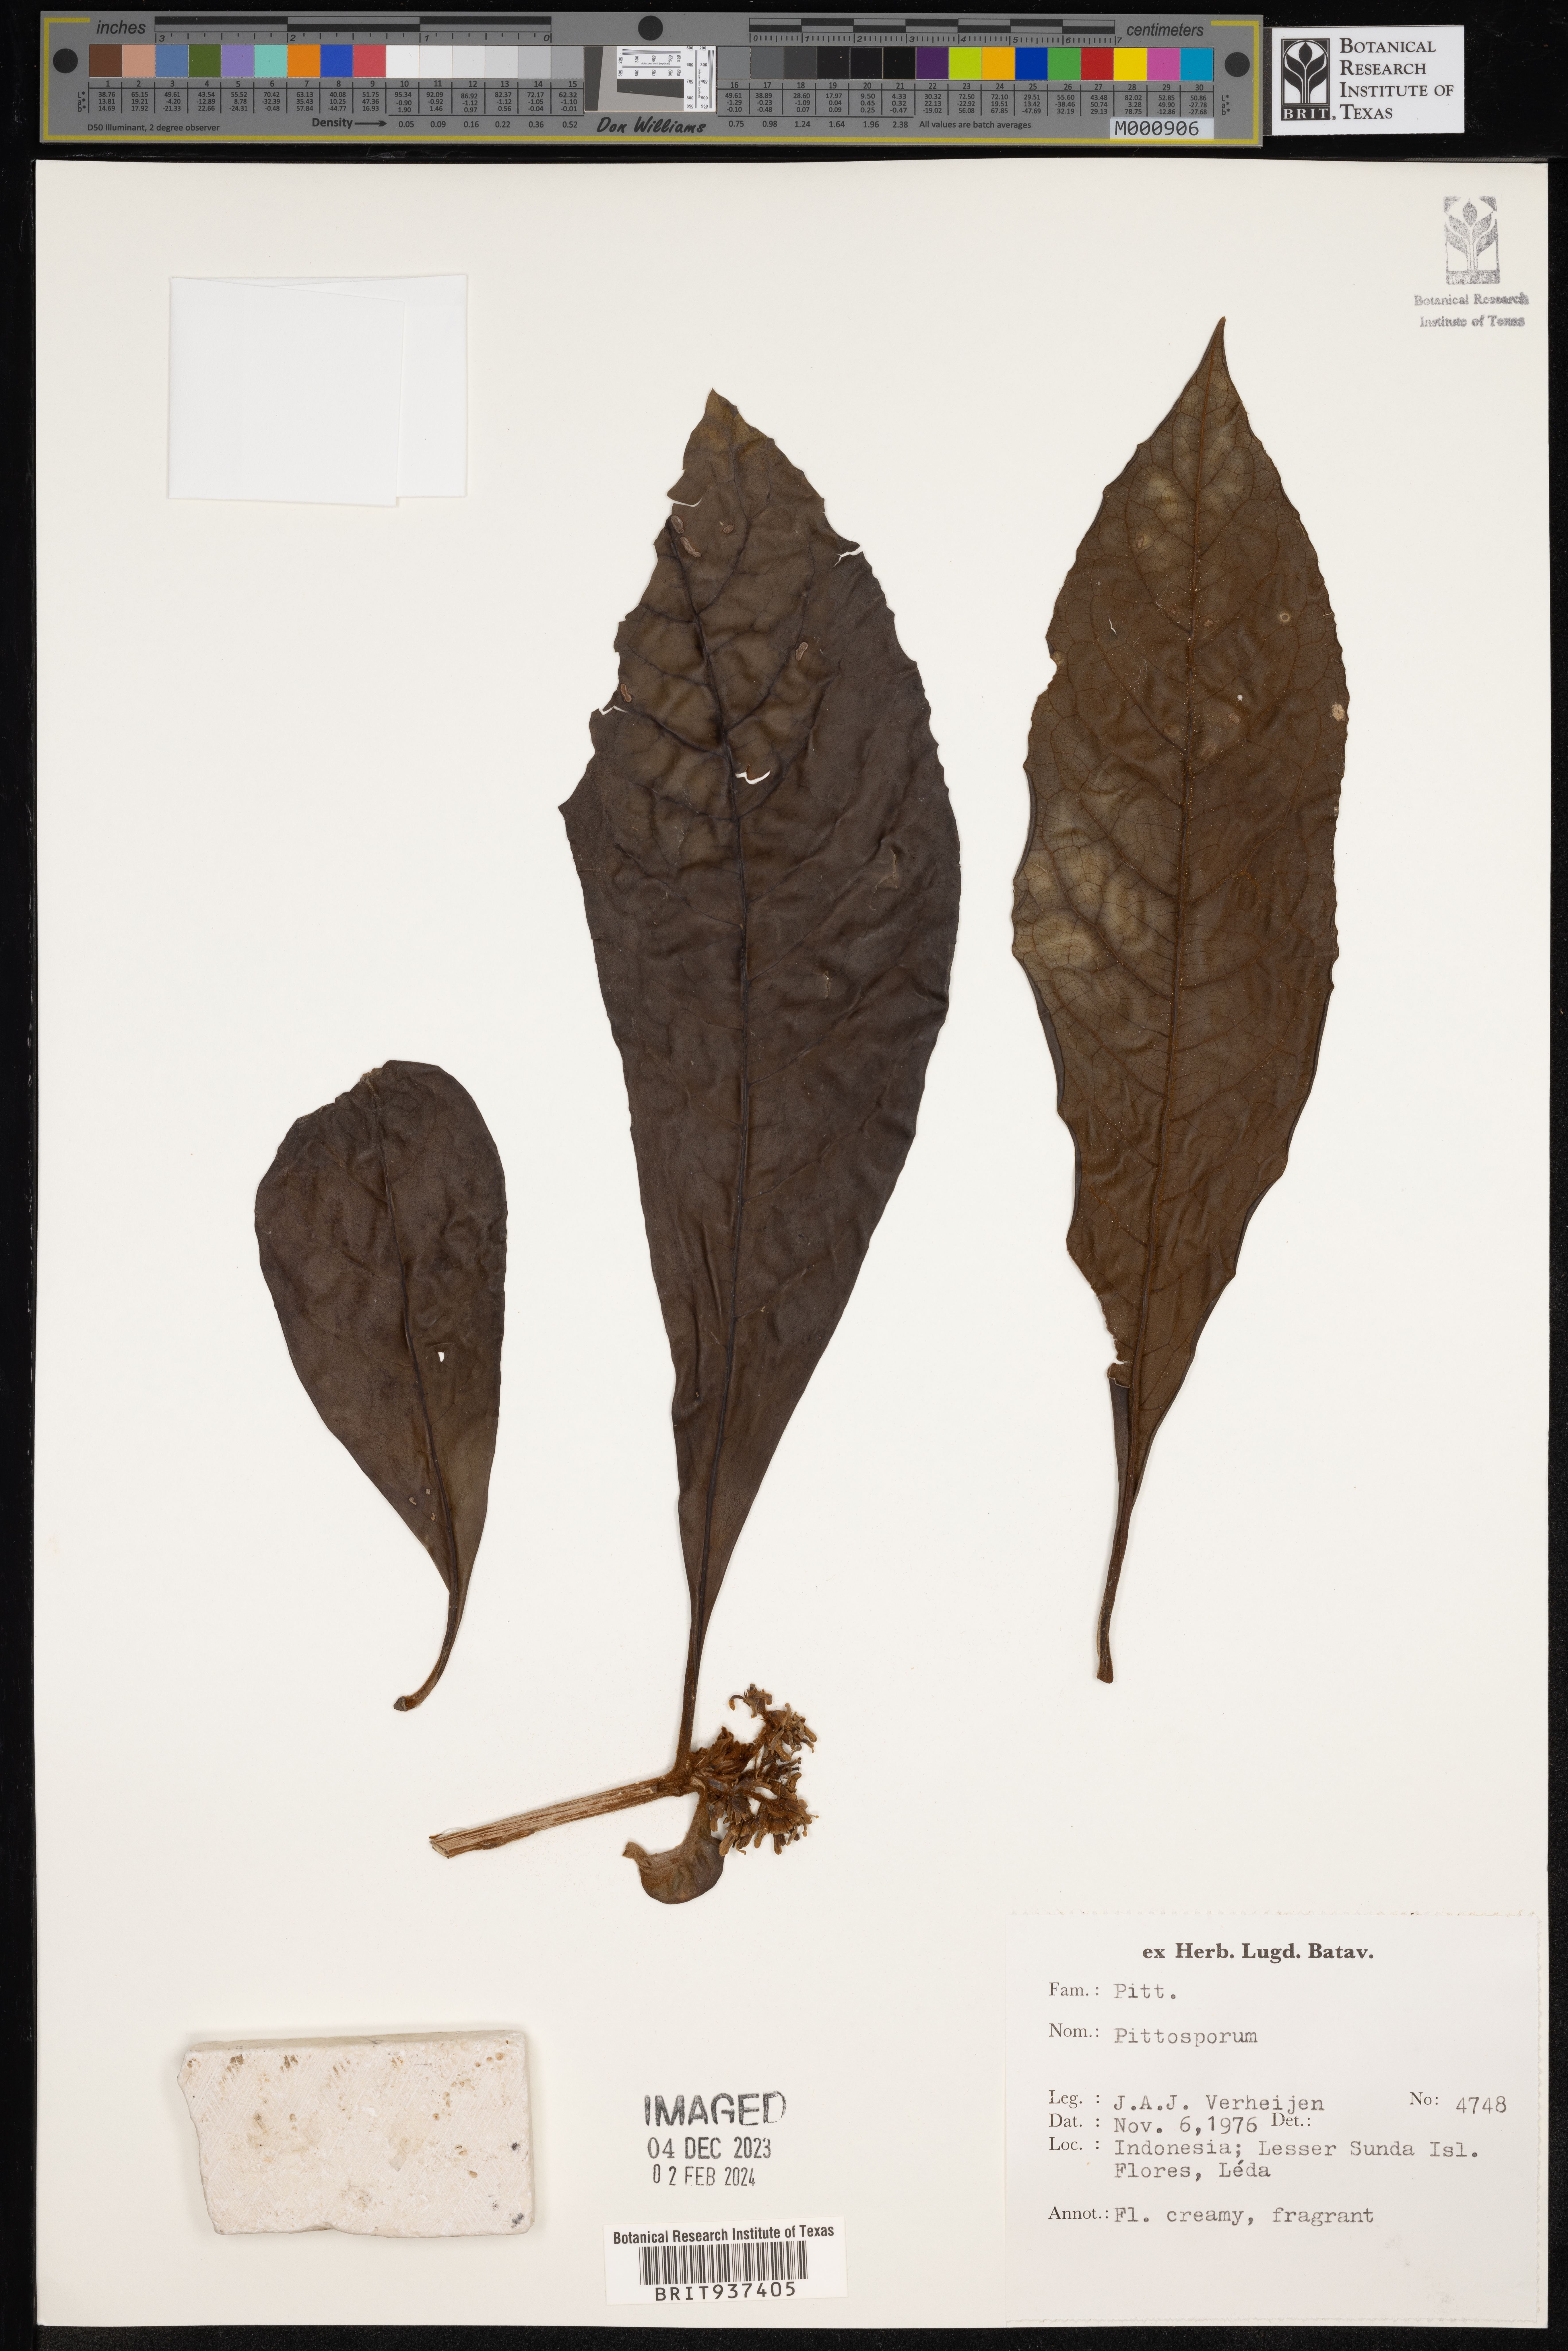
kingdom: Plantae
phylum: Tracheophyta
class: Magnoliopsida
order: Apiales
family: Pittosporaceae
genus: Pittosporum
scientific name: Pittosporum
